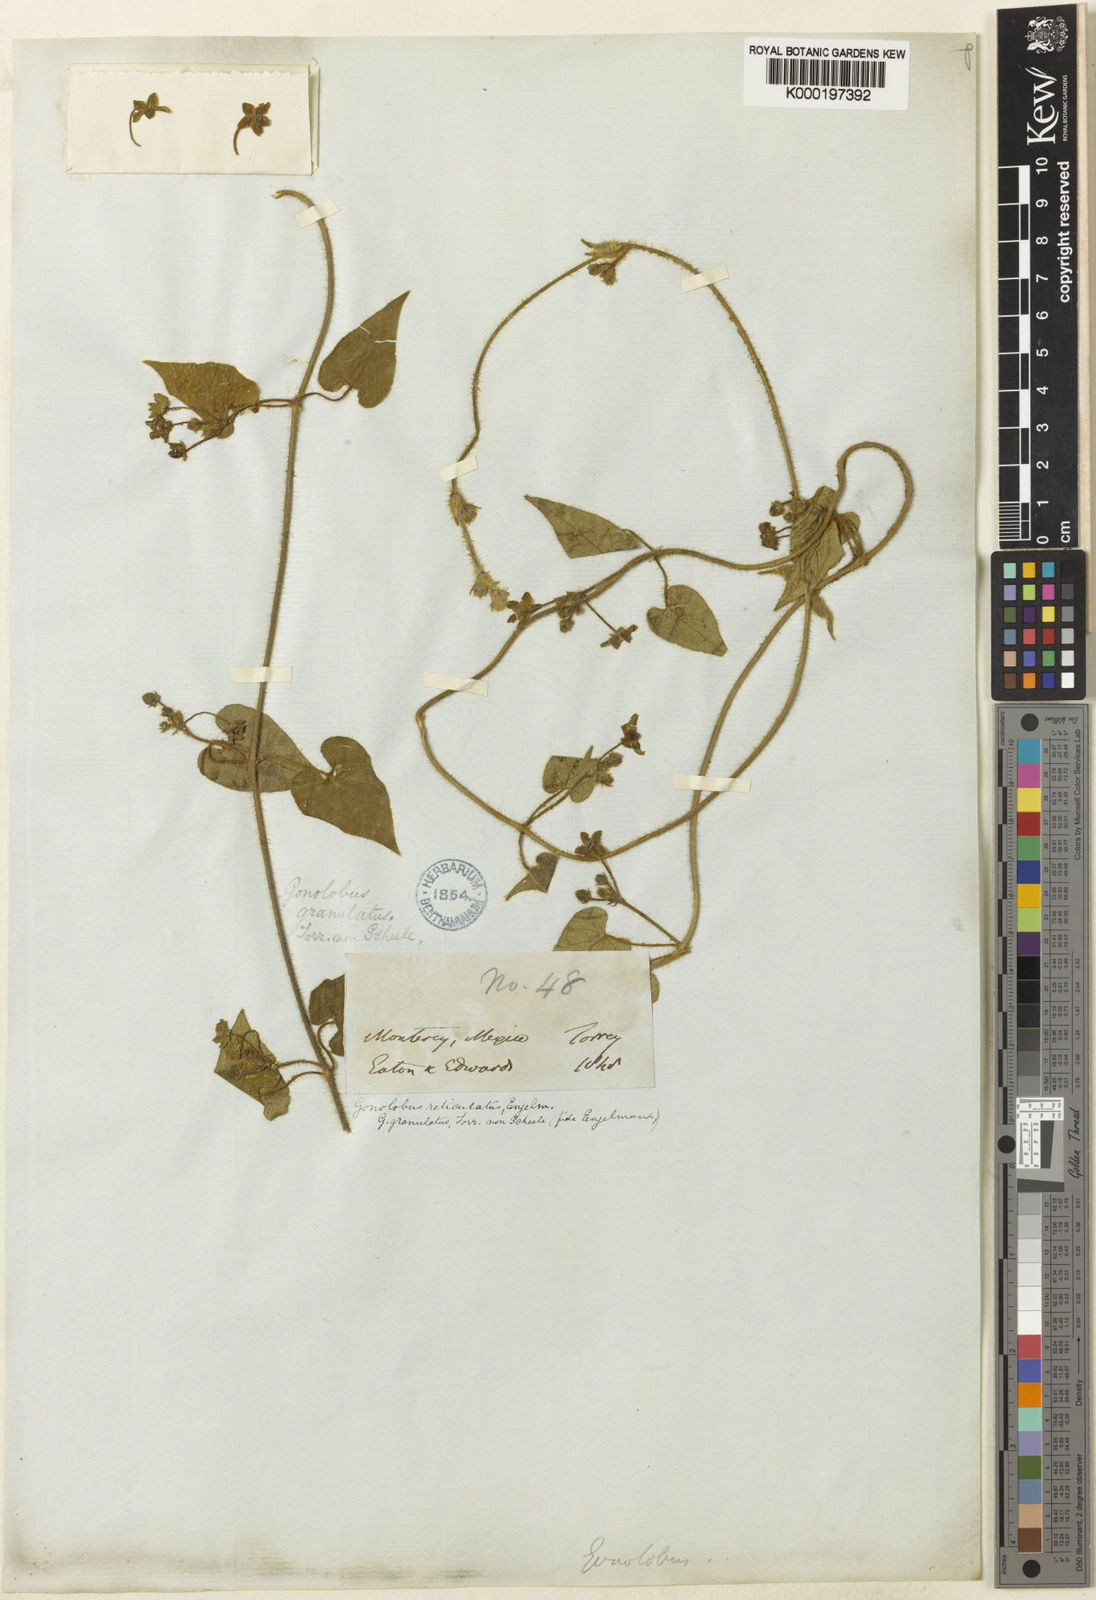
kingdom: Plantae
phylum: Tracheophyta
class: Magnoliopsida
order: Gentianales
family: Apocynaceae
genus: Dictyanthus
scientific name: Dictyanthus reticulatus
